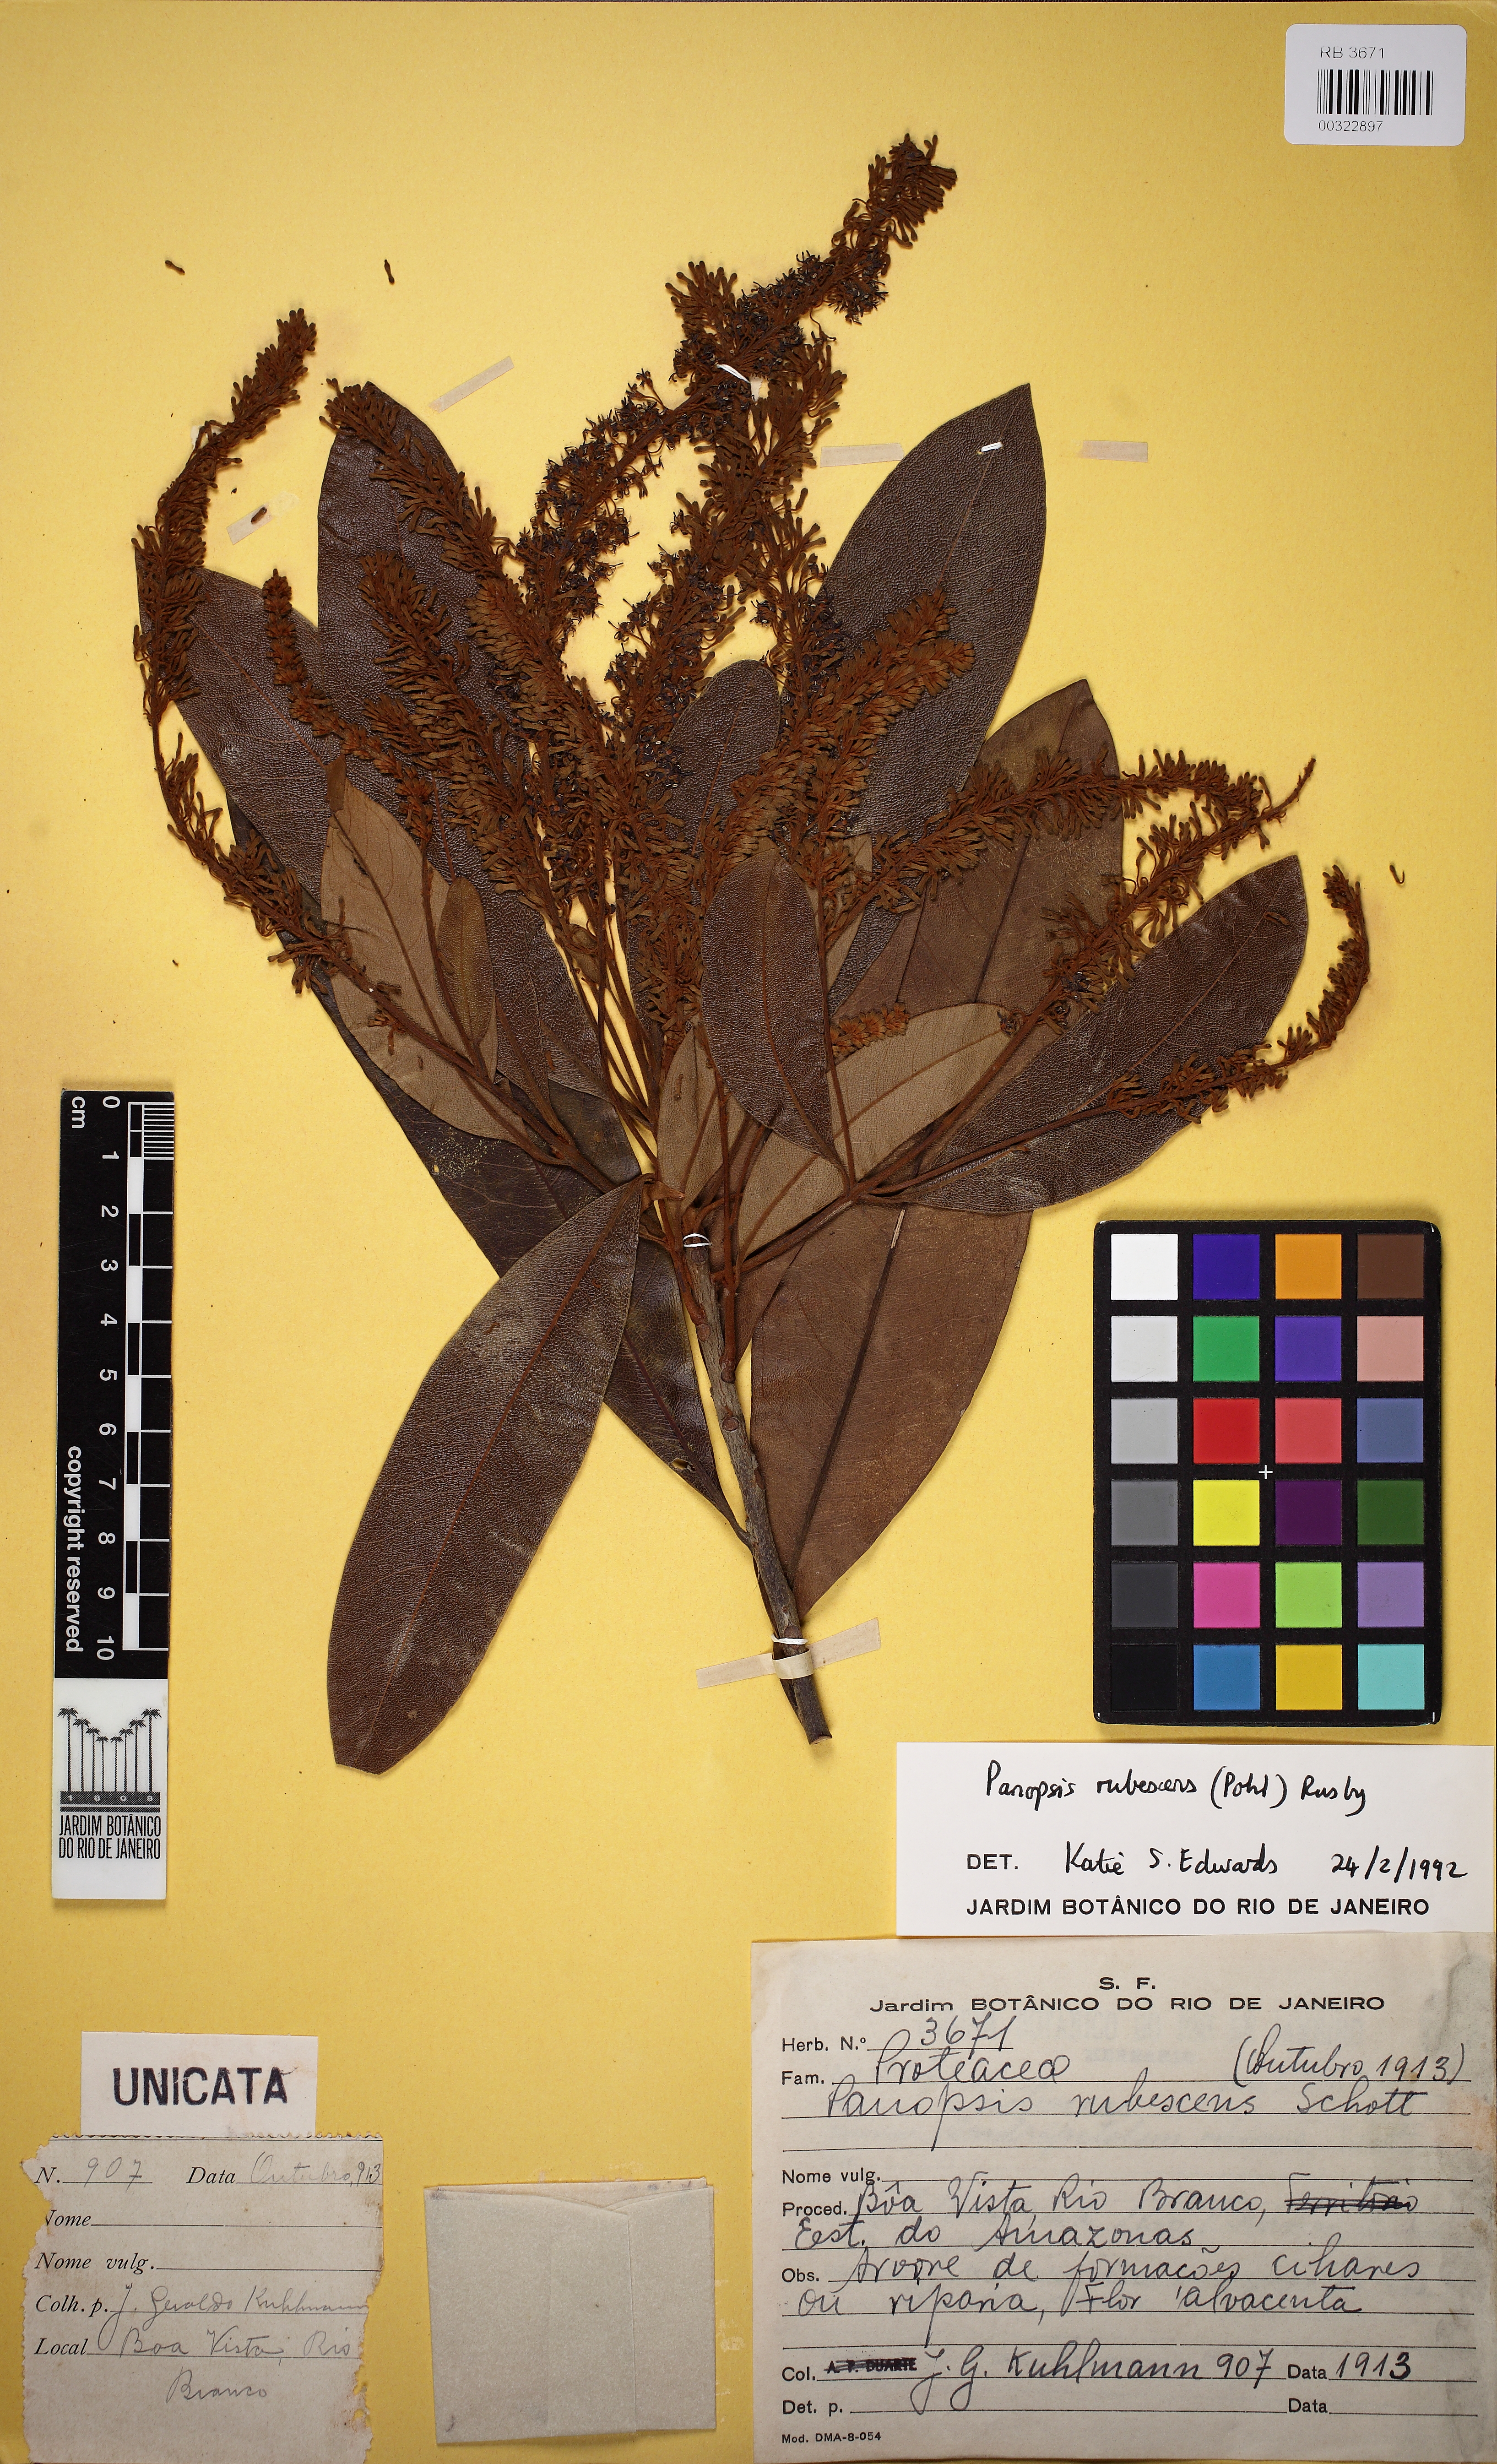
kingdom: Plantae
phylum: Tracheophyta
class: Magnoliopsida
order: Proteales
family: Proteaceae
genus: Panopsis
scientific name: Panopsis rubescens
